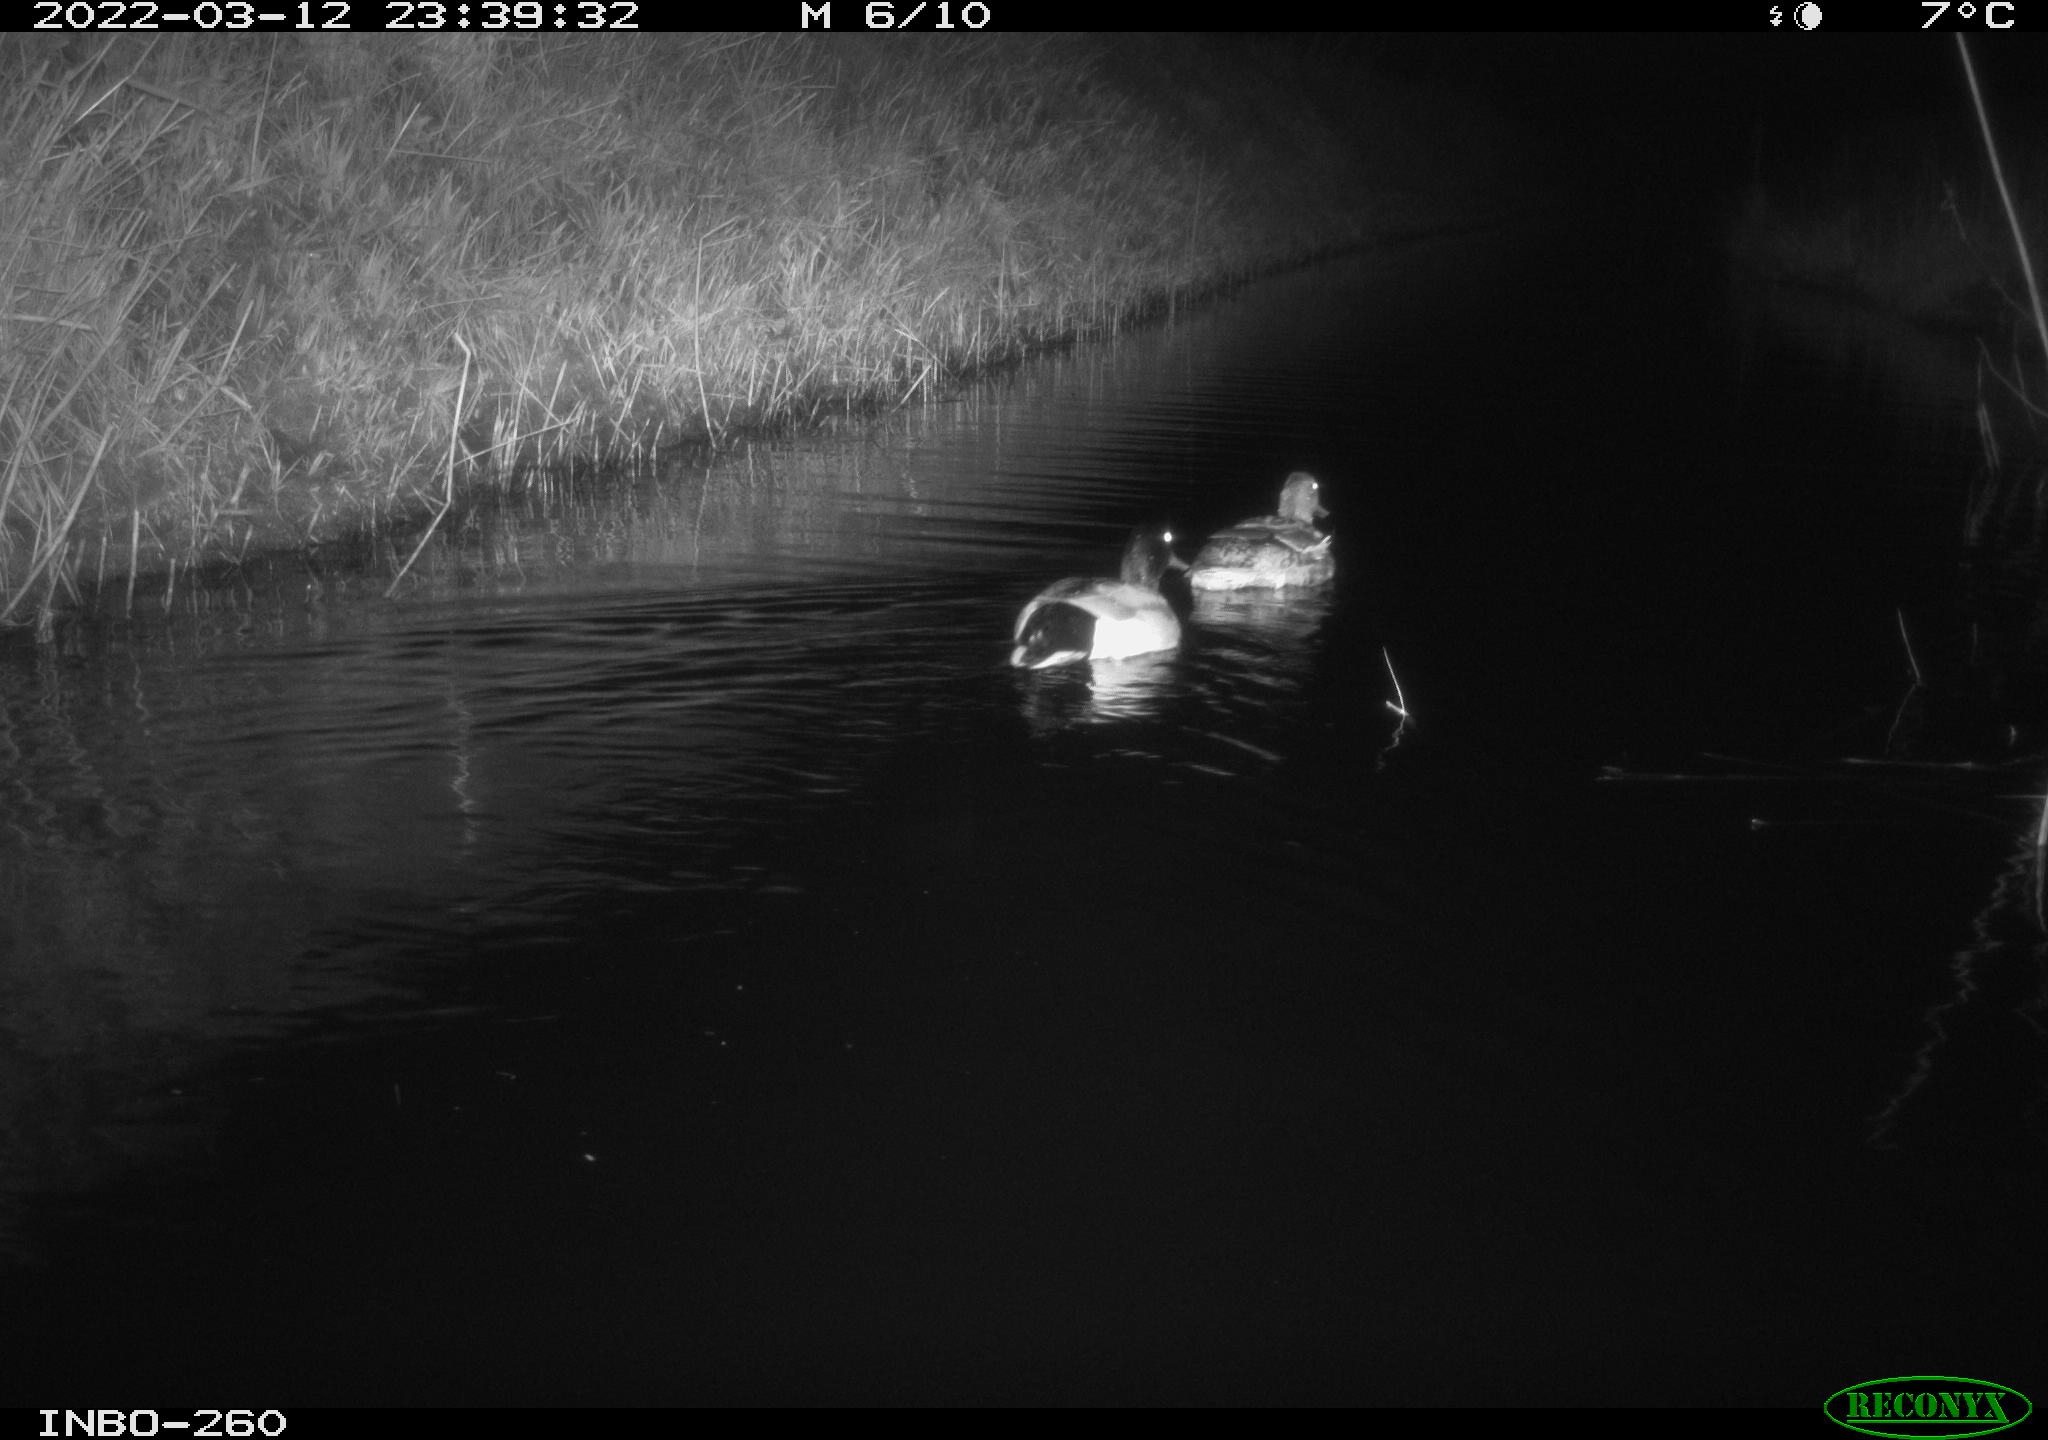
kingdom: Animalia
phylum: Chordata
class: Aves
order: Anseriformes
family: Anatidae
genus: Anas
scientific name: Anas platyrhynchos
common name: Mallard
